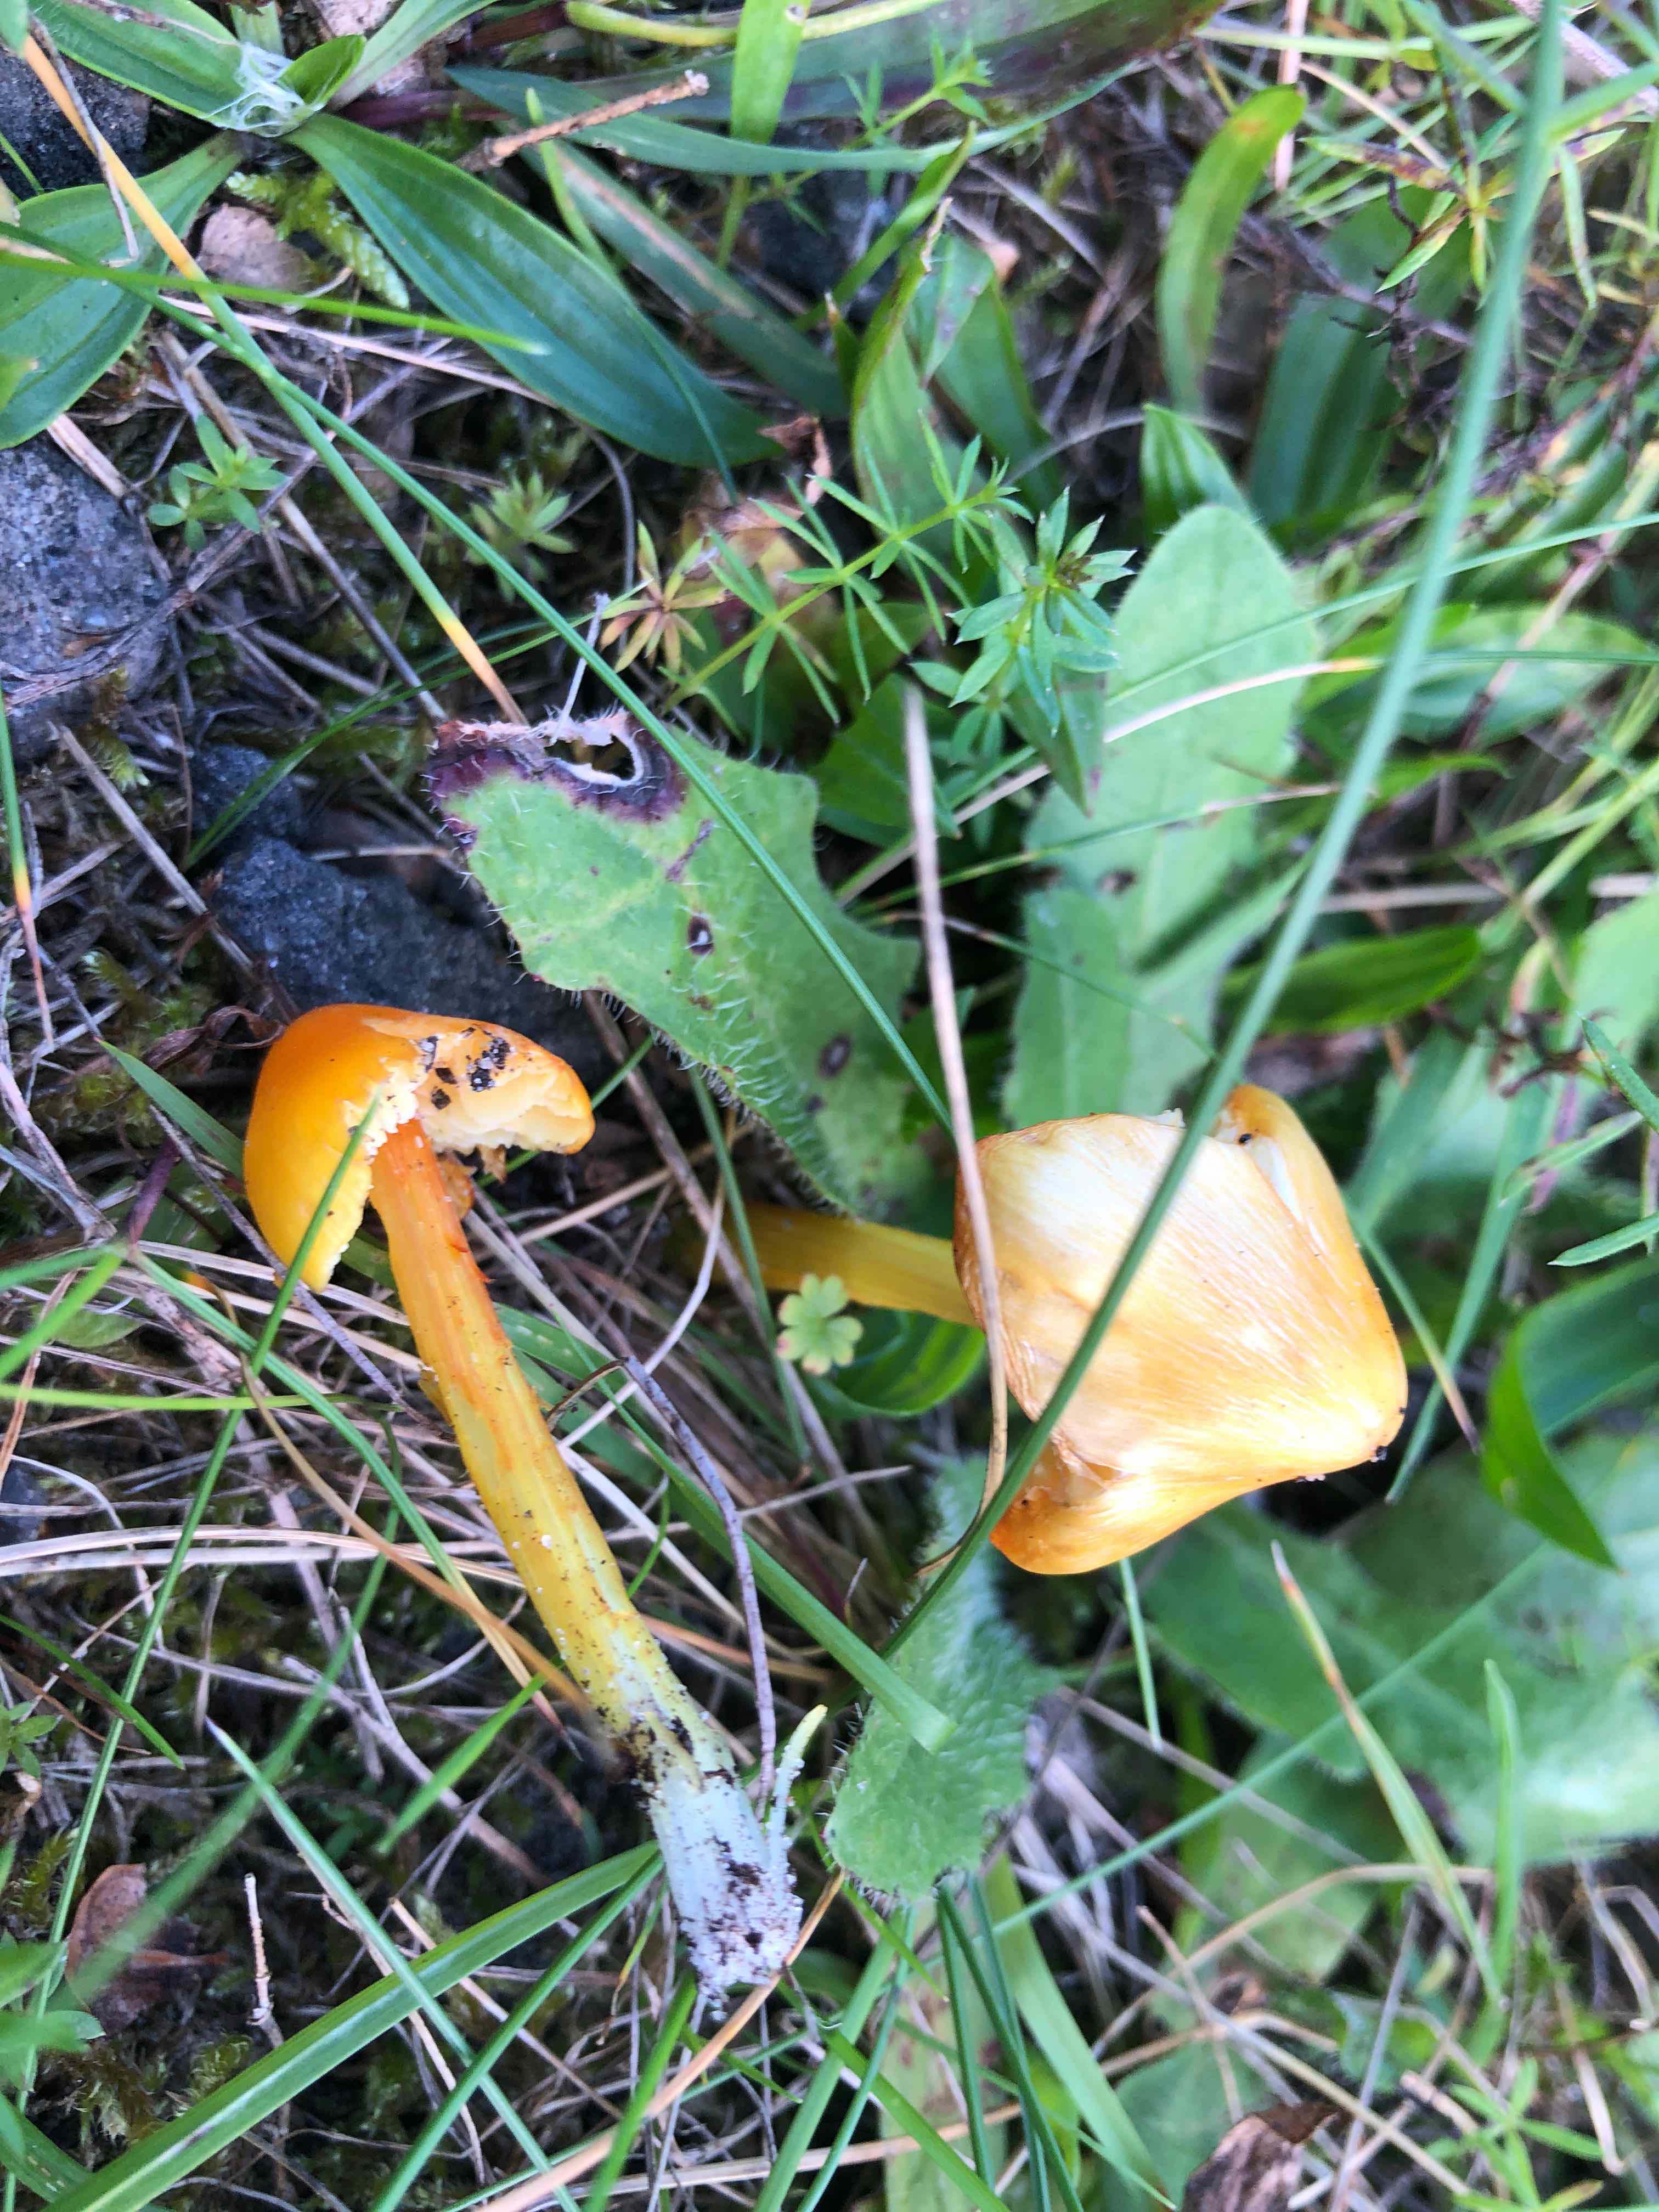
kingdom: Fungi
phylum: Basidiomycota
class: Agaricomycetes
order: Agaricales
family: Hygrophoraceae
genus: Hygrocybe
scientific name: Hygrocybe acutoconica
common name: spidspuklet vokshat
